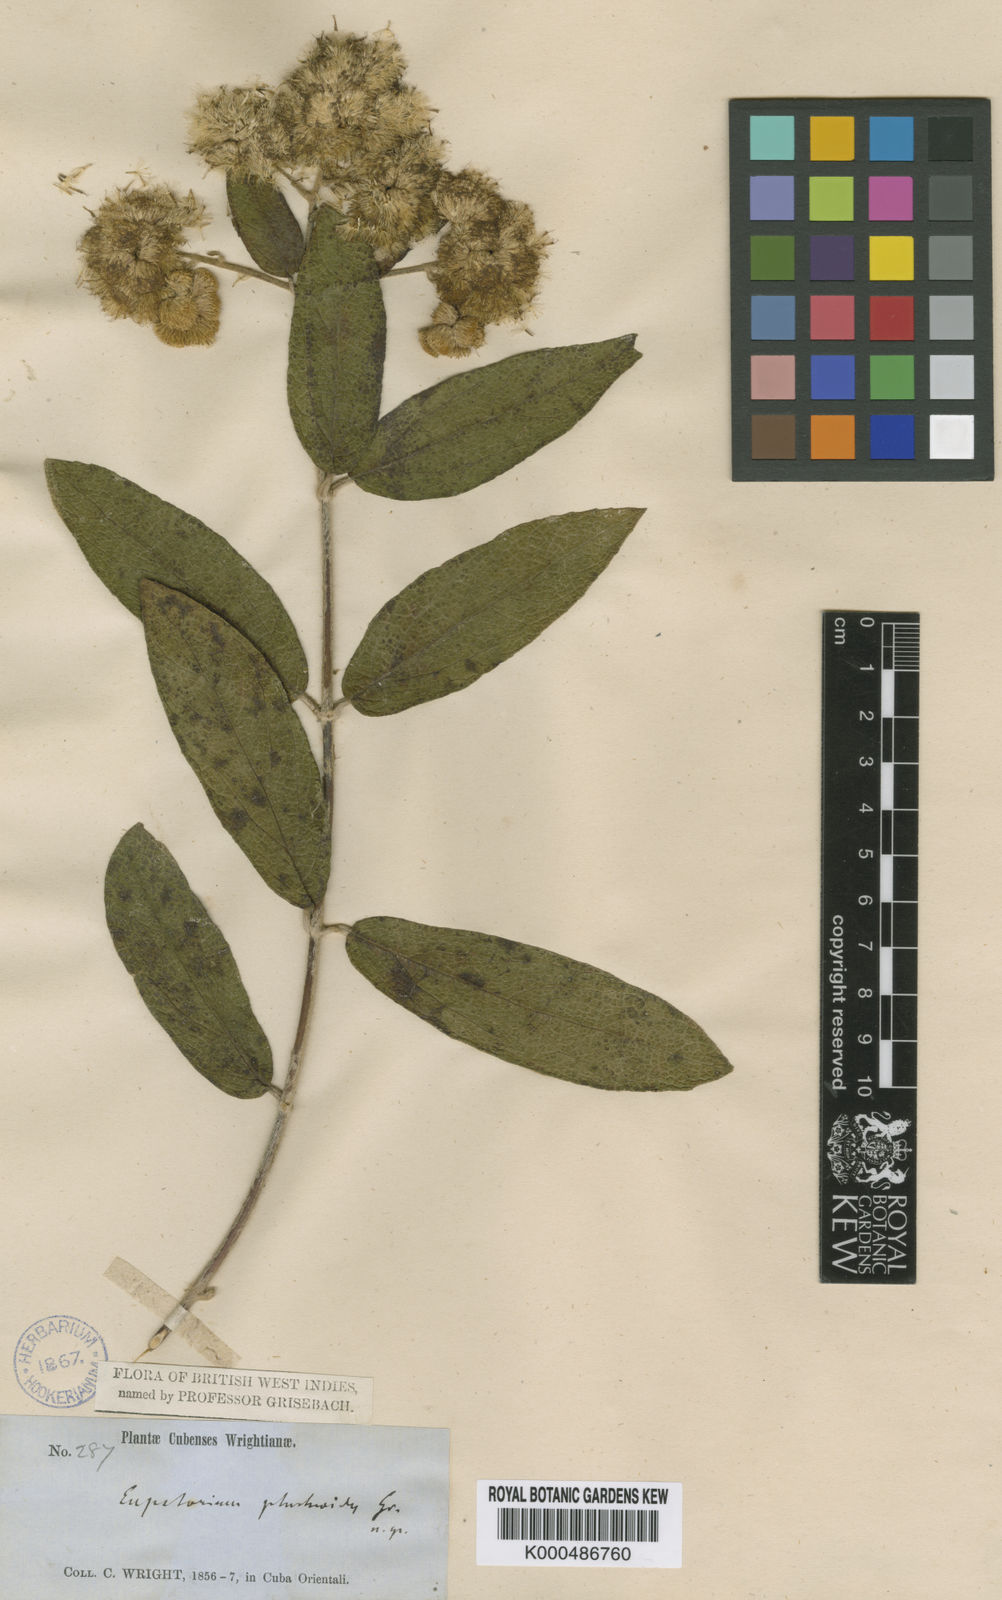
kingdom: Plantae
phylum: Tracheophyta
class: Magnoliopsida
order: Asterales
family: Asteraceae
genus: Grisebachianthus
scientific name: Grisebachianthus plucheoides
